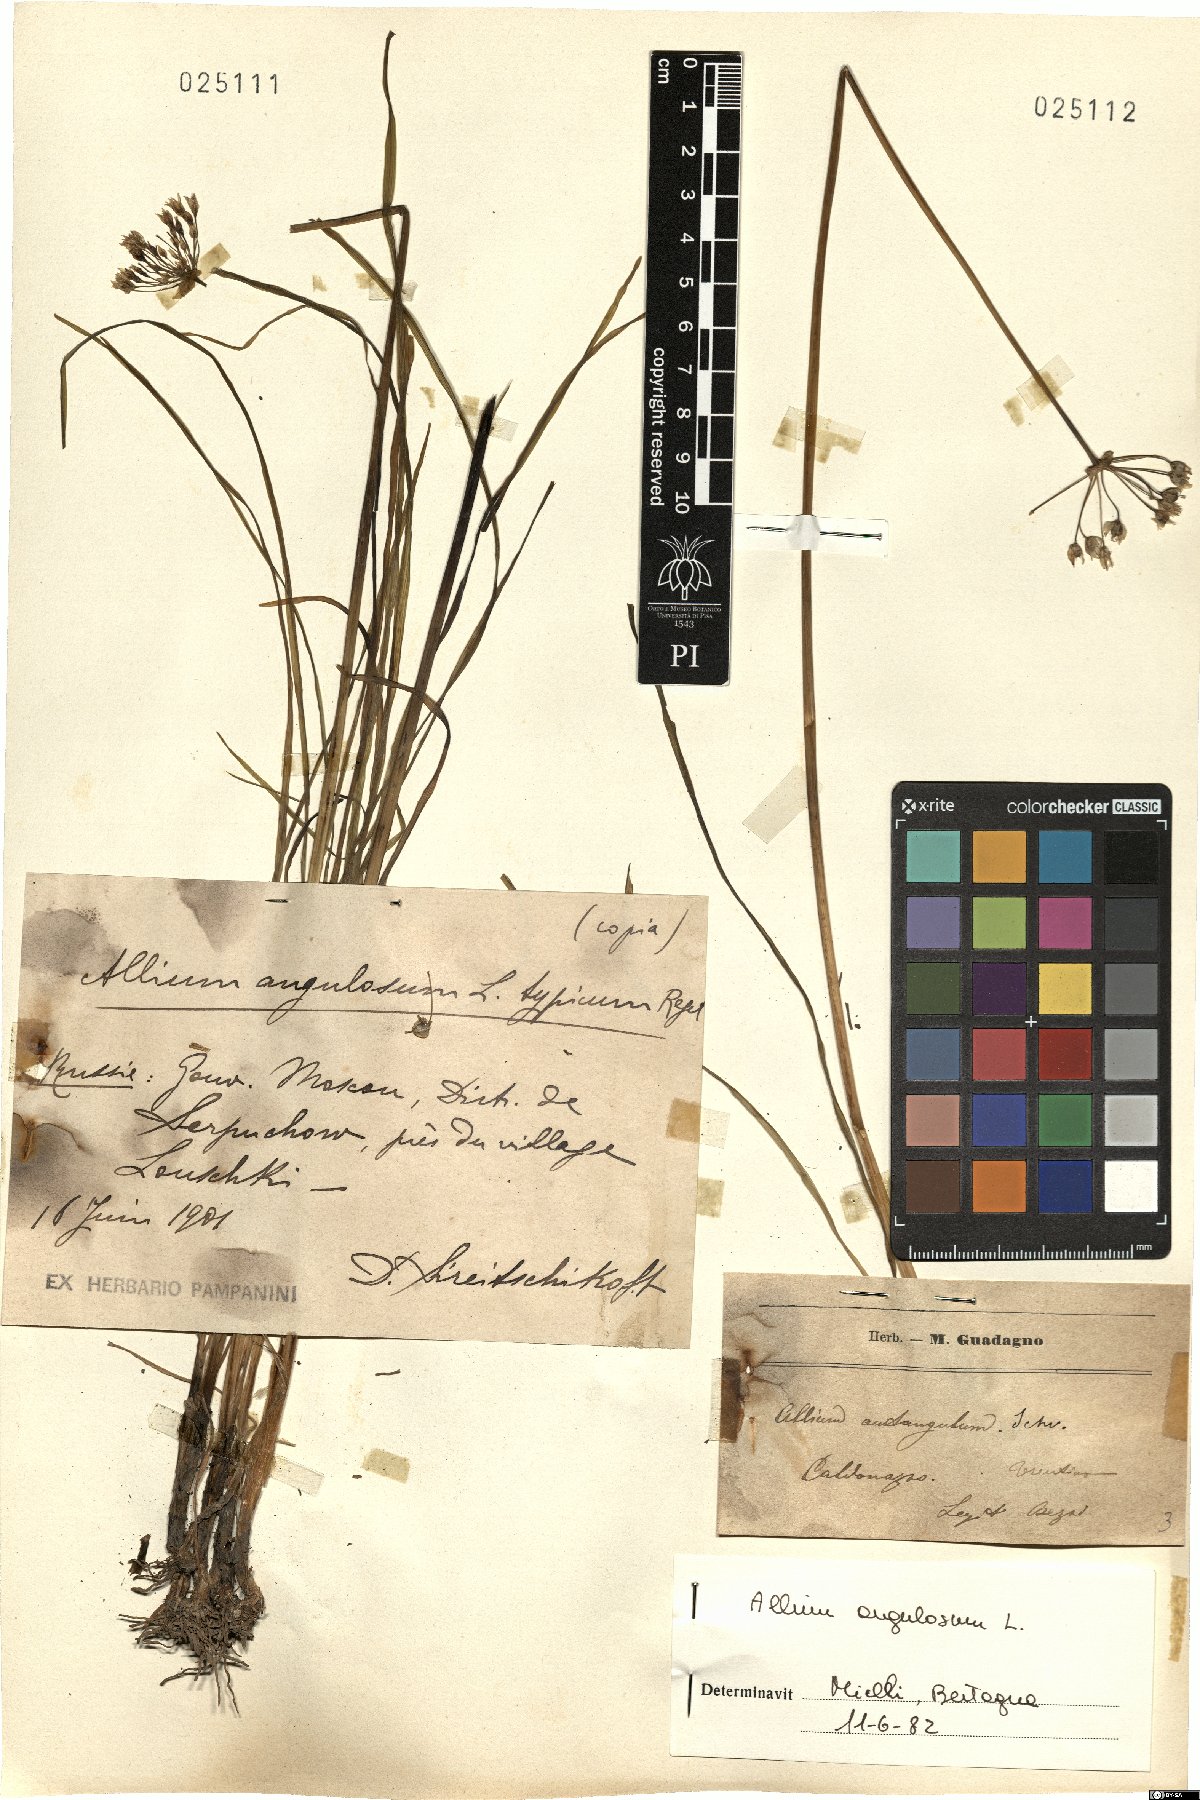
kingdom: Plantae
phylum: Tracheophyta
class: Liliopsida
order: Asparagales
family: Amaryllidaceae
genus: Allium
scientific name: Allium angulosum
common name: Mouse garlic
